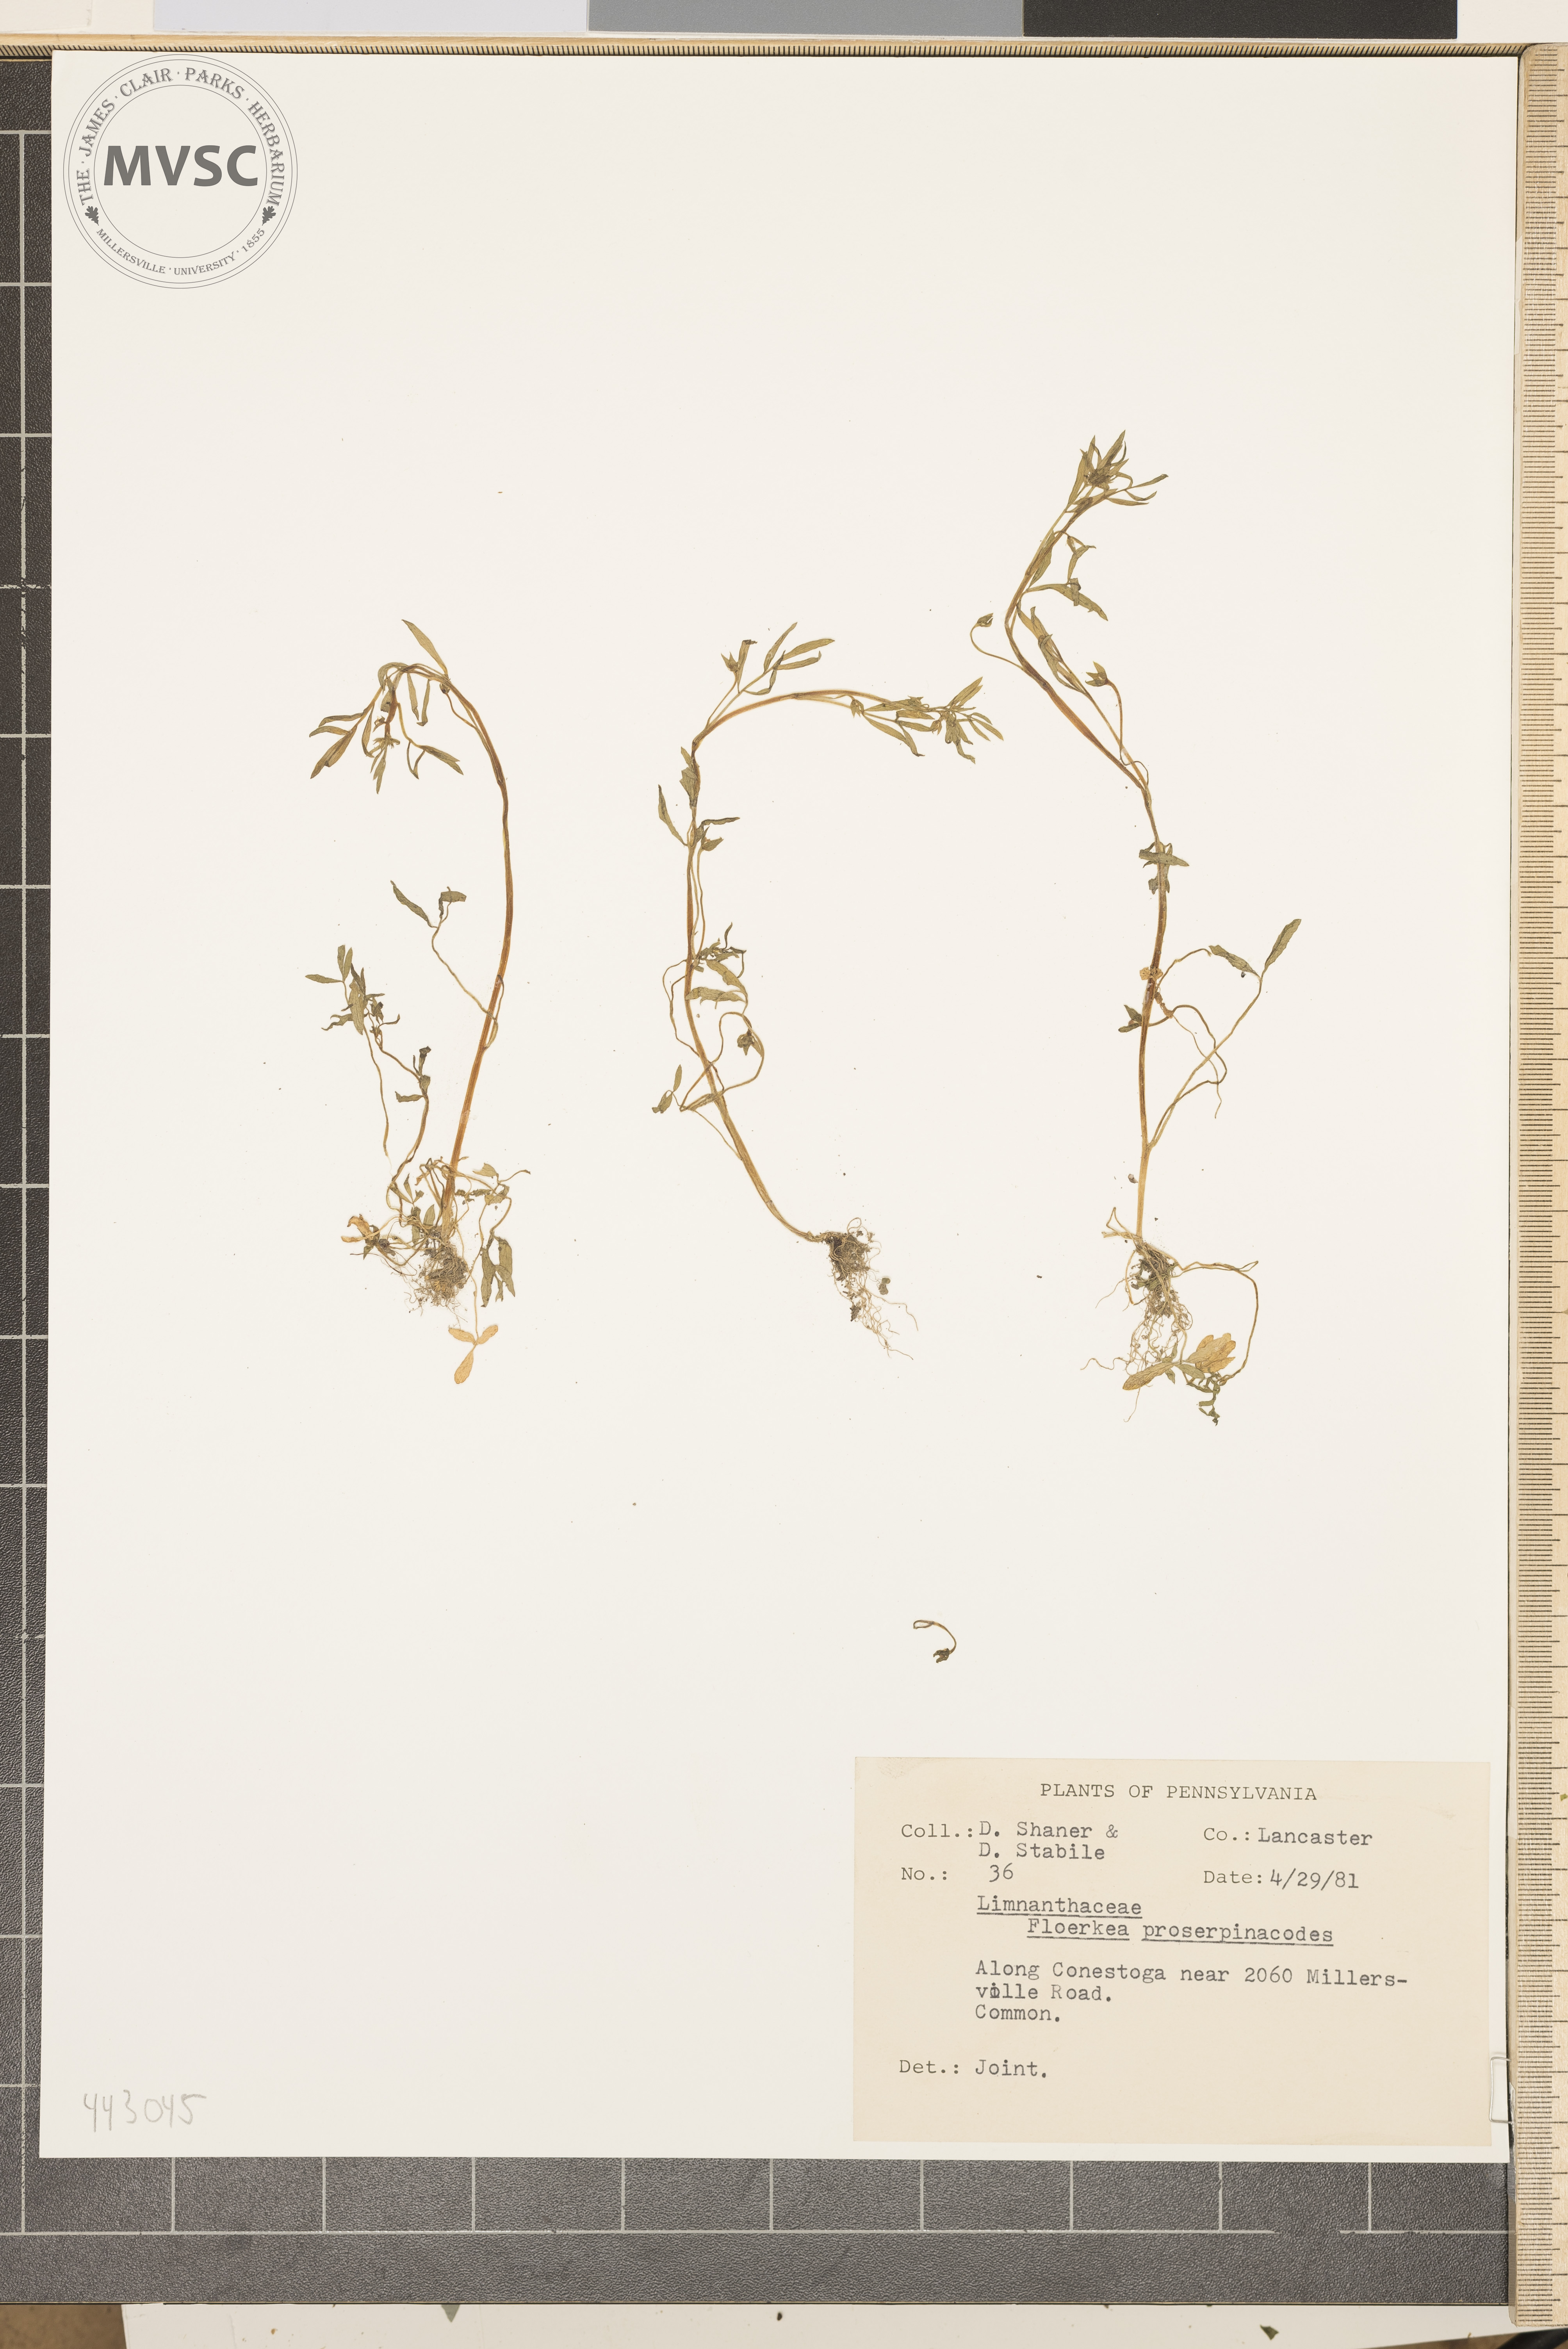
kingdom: Plantae
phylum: Tracheophyta
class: Magnoliopsida
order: Brassicales
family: Limnanthaceae
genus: Floerkea
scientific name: Floerkea proserpinacoides
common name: False mermaid
